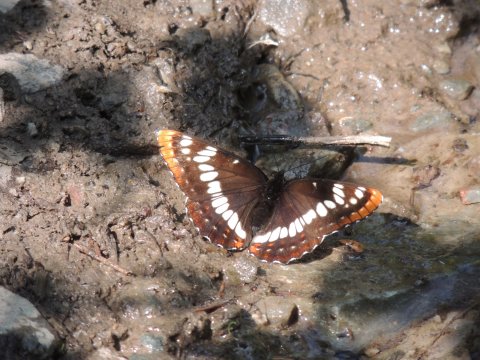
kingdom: Animalia
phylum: Arthropoda
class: Insecta
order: Lepidoptera
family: Nymphalidae
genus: Limenitis
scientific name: Limenitis lorquini
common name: Lorquin's Admiral
